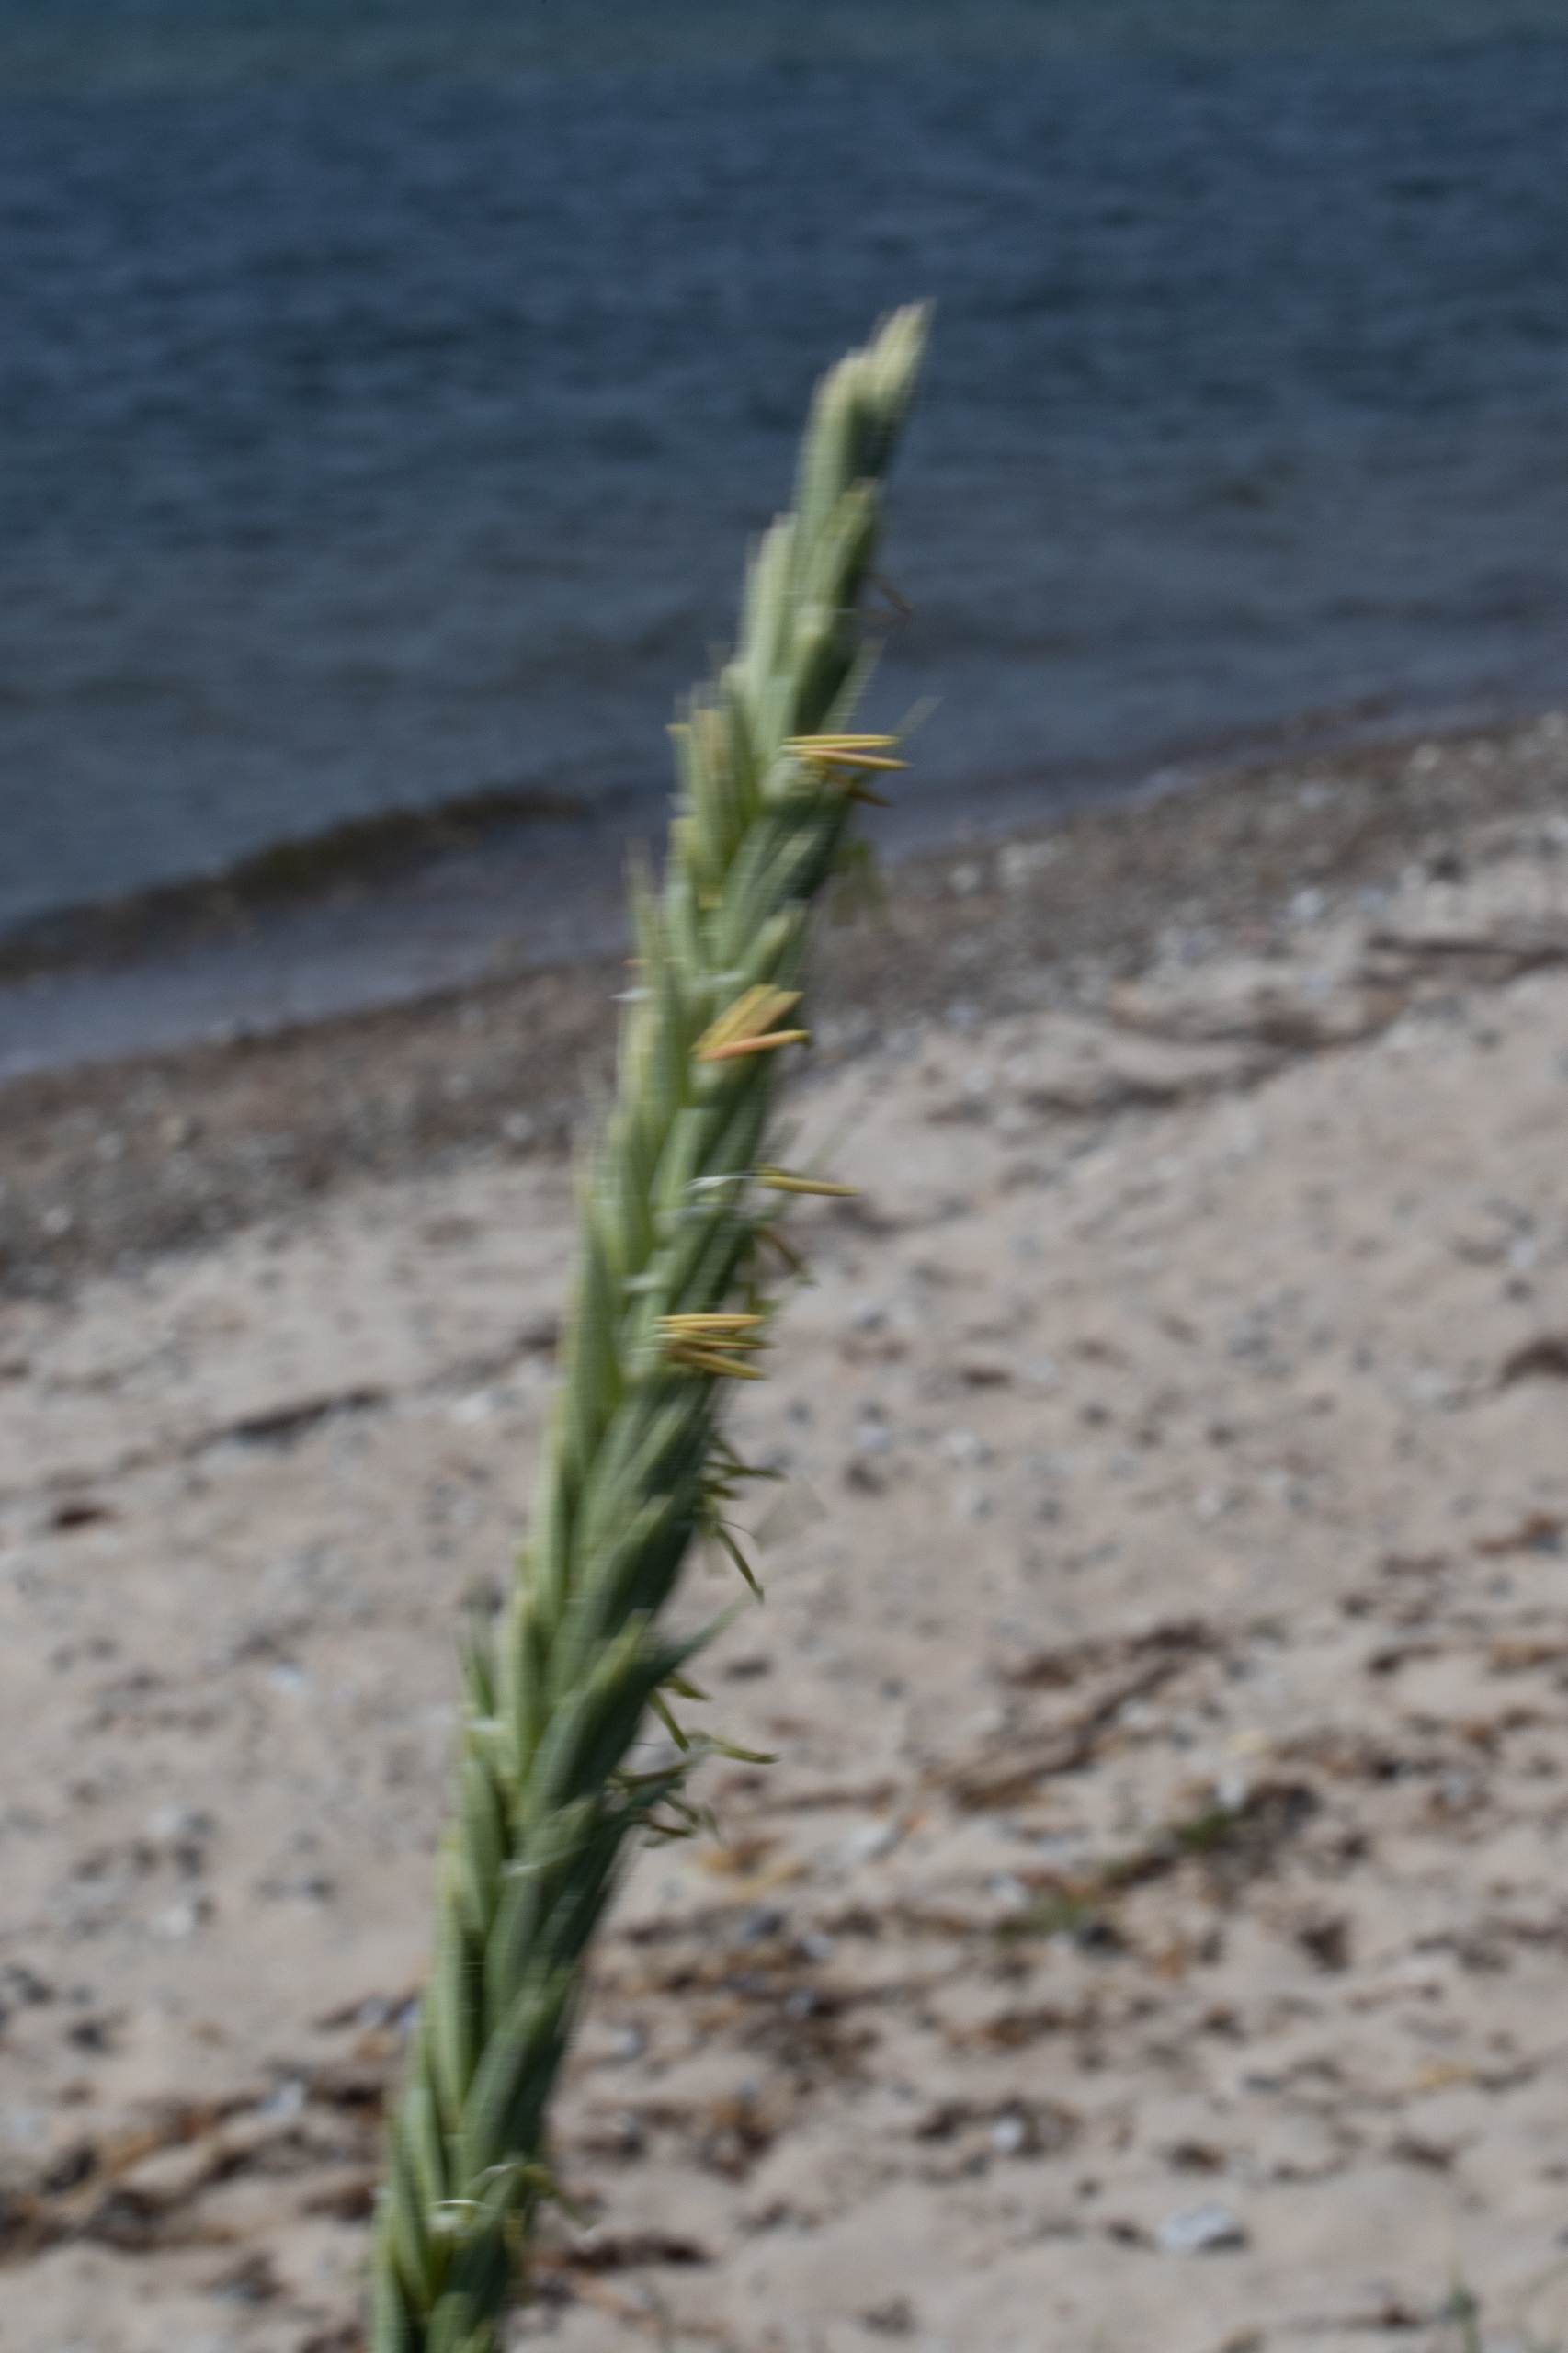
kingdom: Plantae
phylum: Tracheophyta
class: Liliopsida
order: Poales
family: Poaceae
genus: Leymus
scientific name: Leymus arenarius
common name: Marehalm
